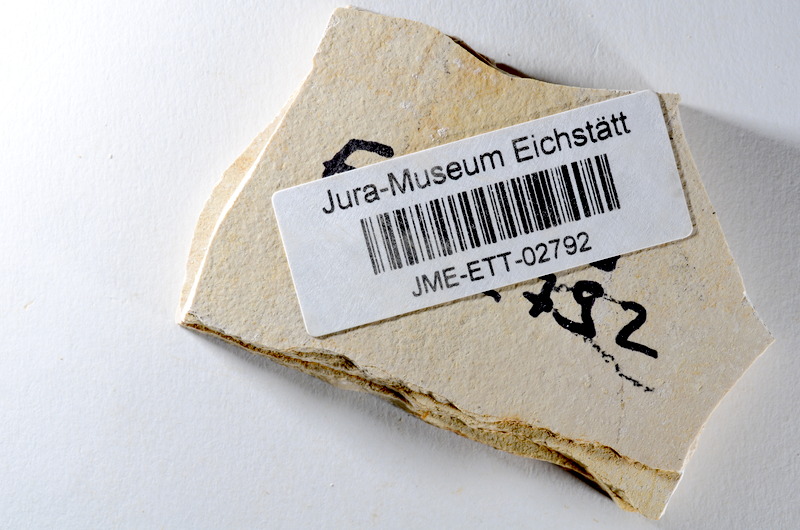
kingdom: Animalia
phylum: Chordata
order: Salmoniformes
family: Orthogonikleithridae
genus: Orthogonikleithrus
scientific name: Orthogonikleithrus hoelli
